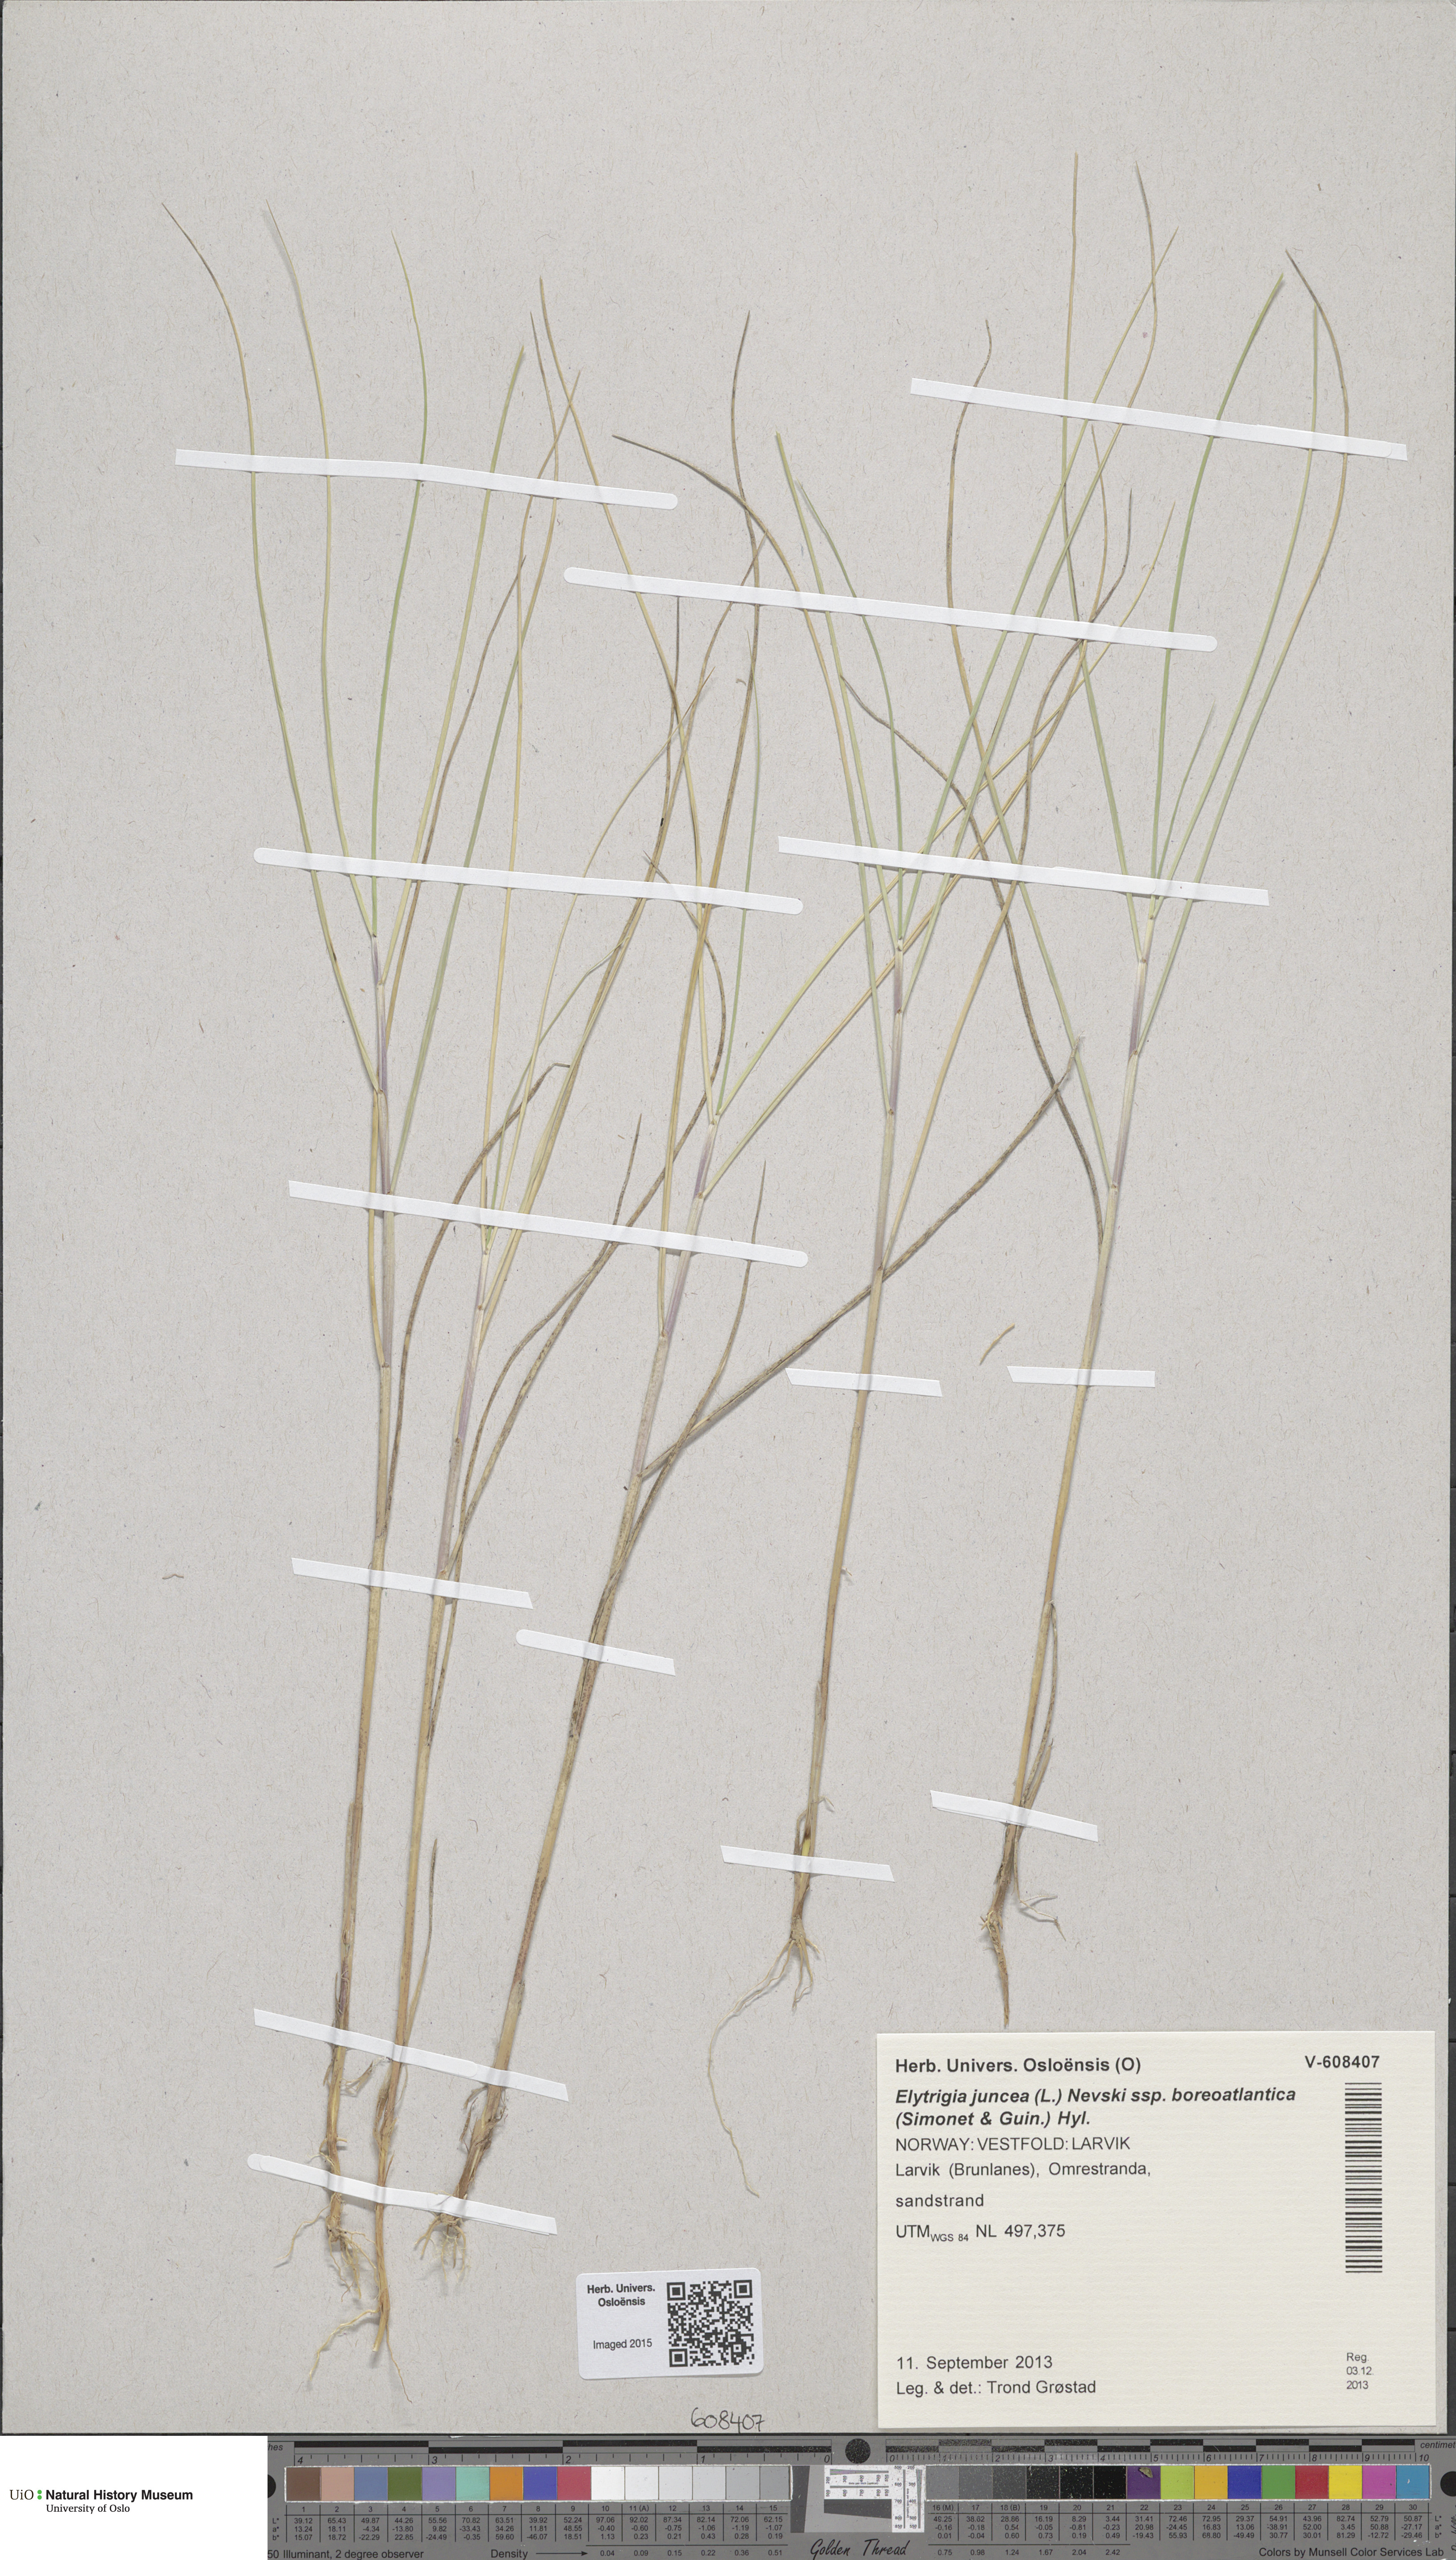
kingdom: Plantae
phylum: Tracheophyta
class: Liliopsida
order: Poales
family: Poaceae
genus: Thinopyrum
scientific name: Thinopyrum junceiforme
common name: Sea couch
